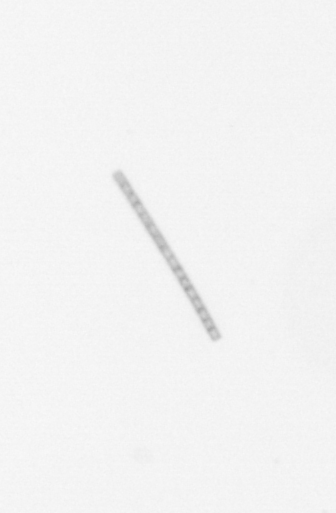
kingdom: Chromista
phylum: Ochrophyta
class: Bacillariophyceae
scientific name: Bacillariophyceae
